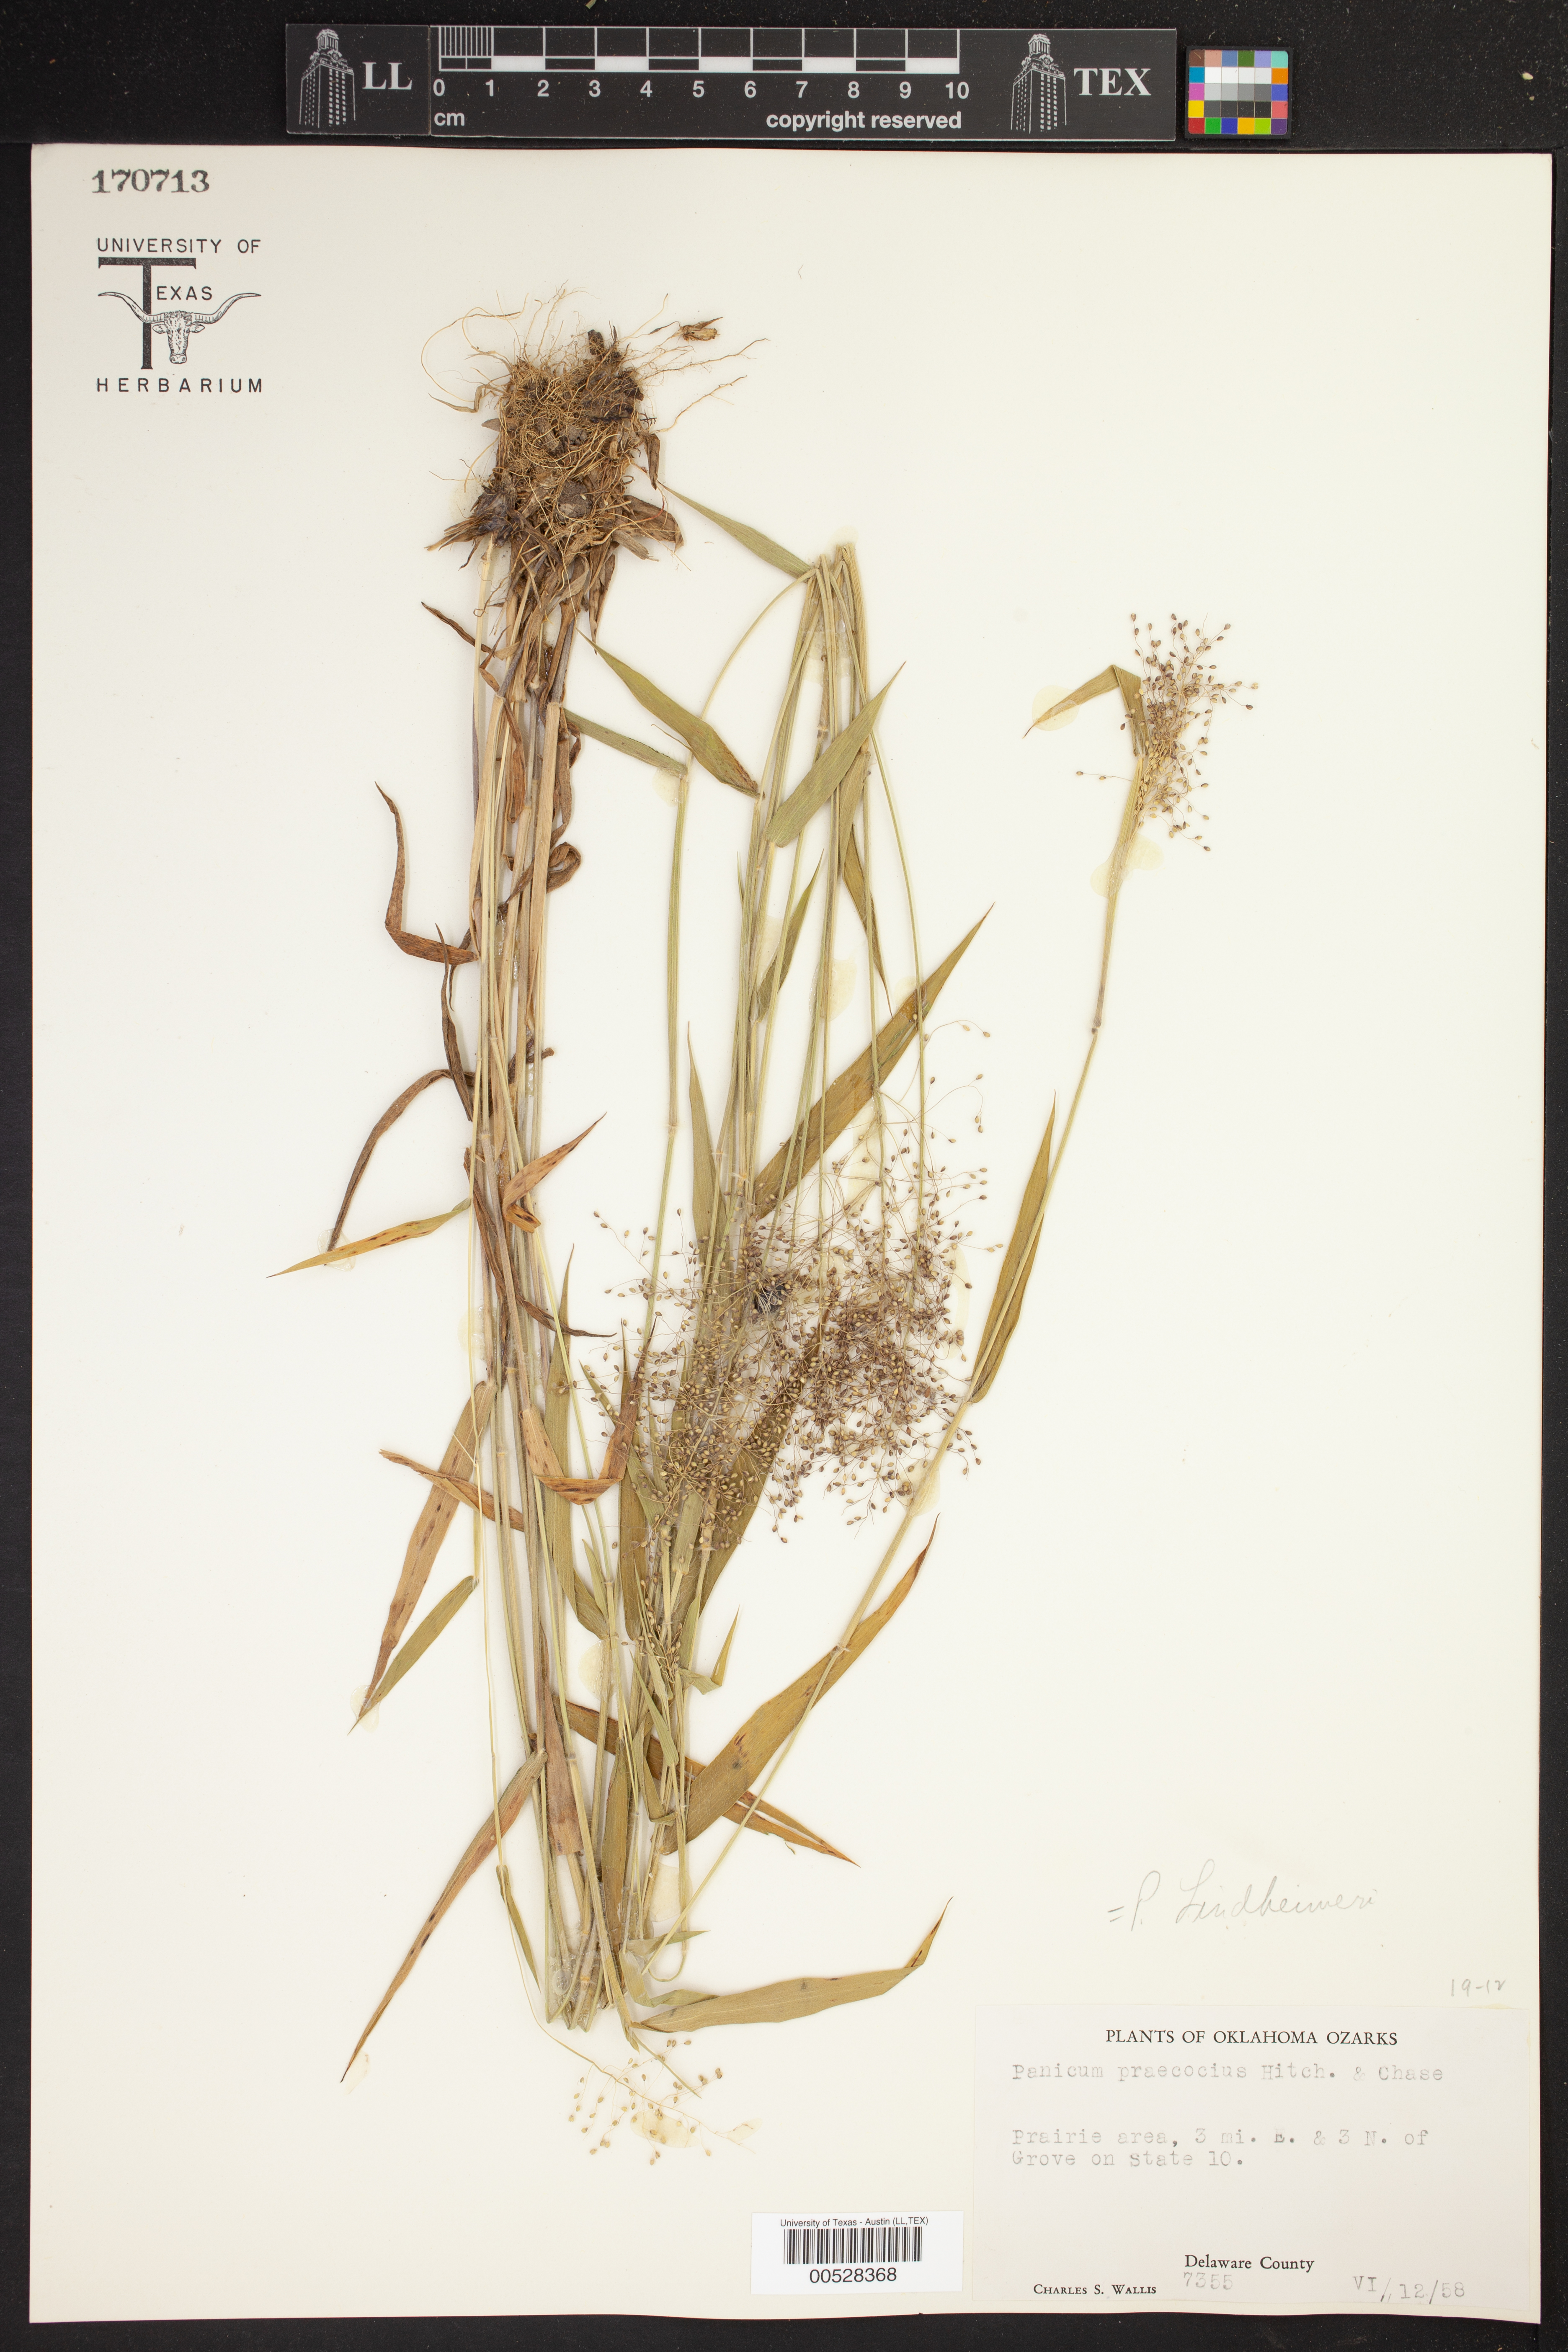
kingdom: Plantae
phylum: Tracheophyta
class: Liliopsida
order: Poales
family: Poaceae
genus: Dichanthelium
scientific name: Dichanthelium lindheimeri
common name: Lindheimer's panicgrass
